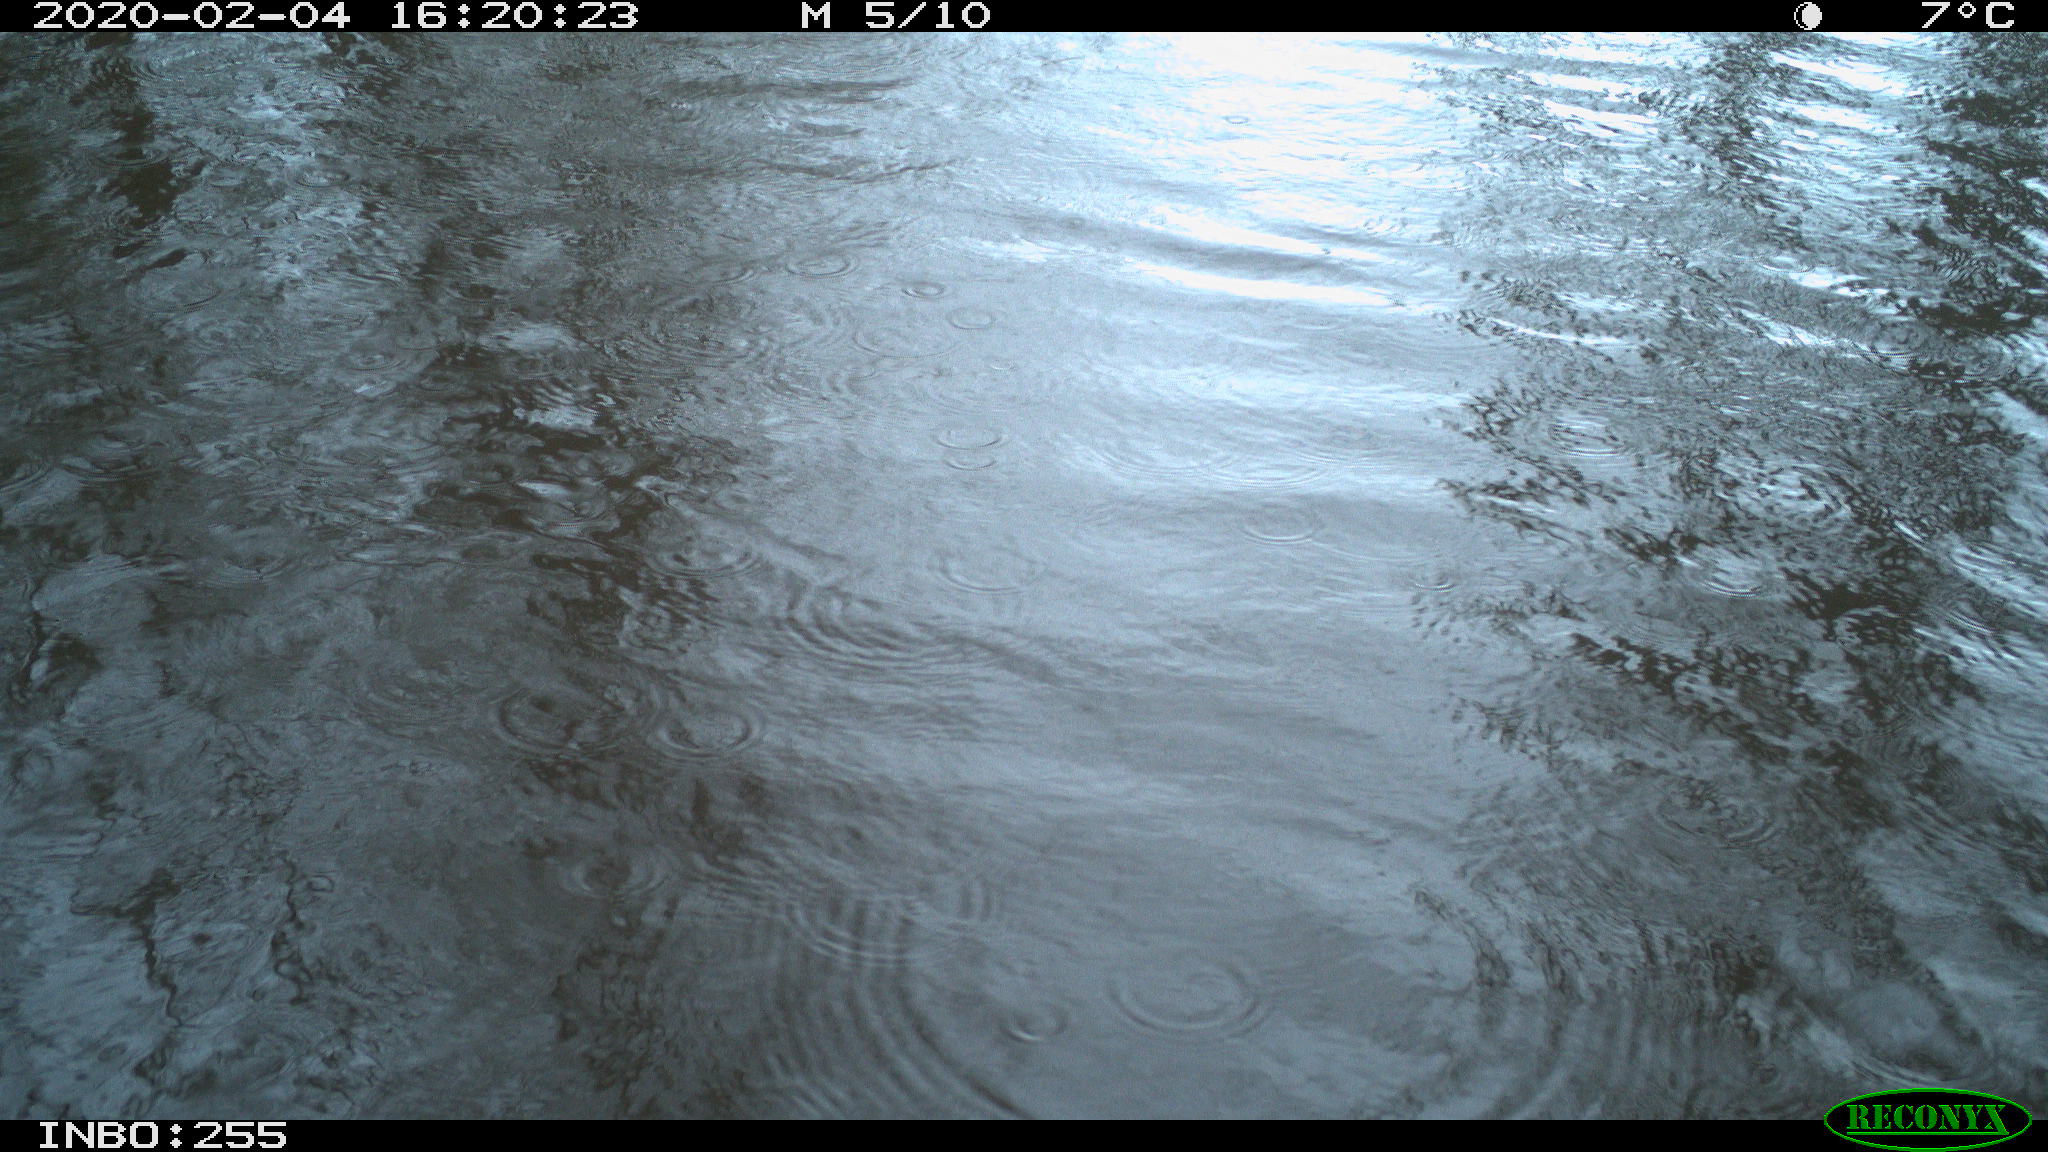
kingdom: Animalia
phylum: Chordata
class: Aves
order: Gruiformes
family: Rallidae
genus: Gallinula
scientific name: Gallinula chloropus
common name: Common moorhen
